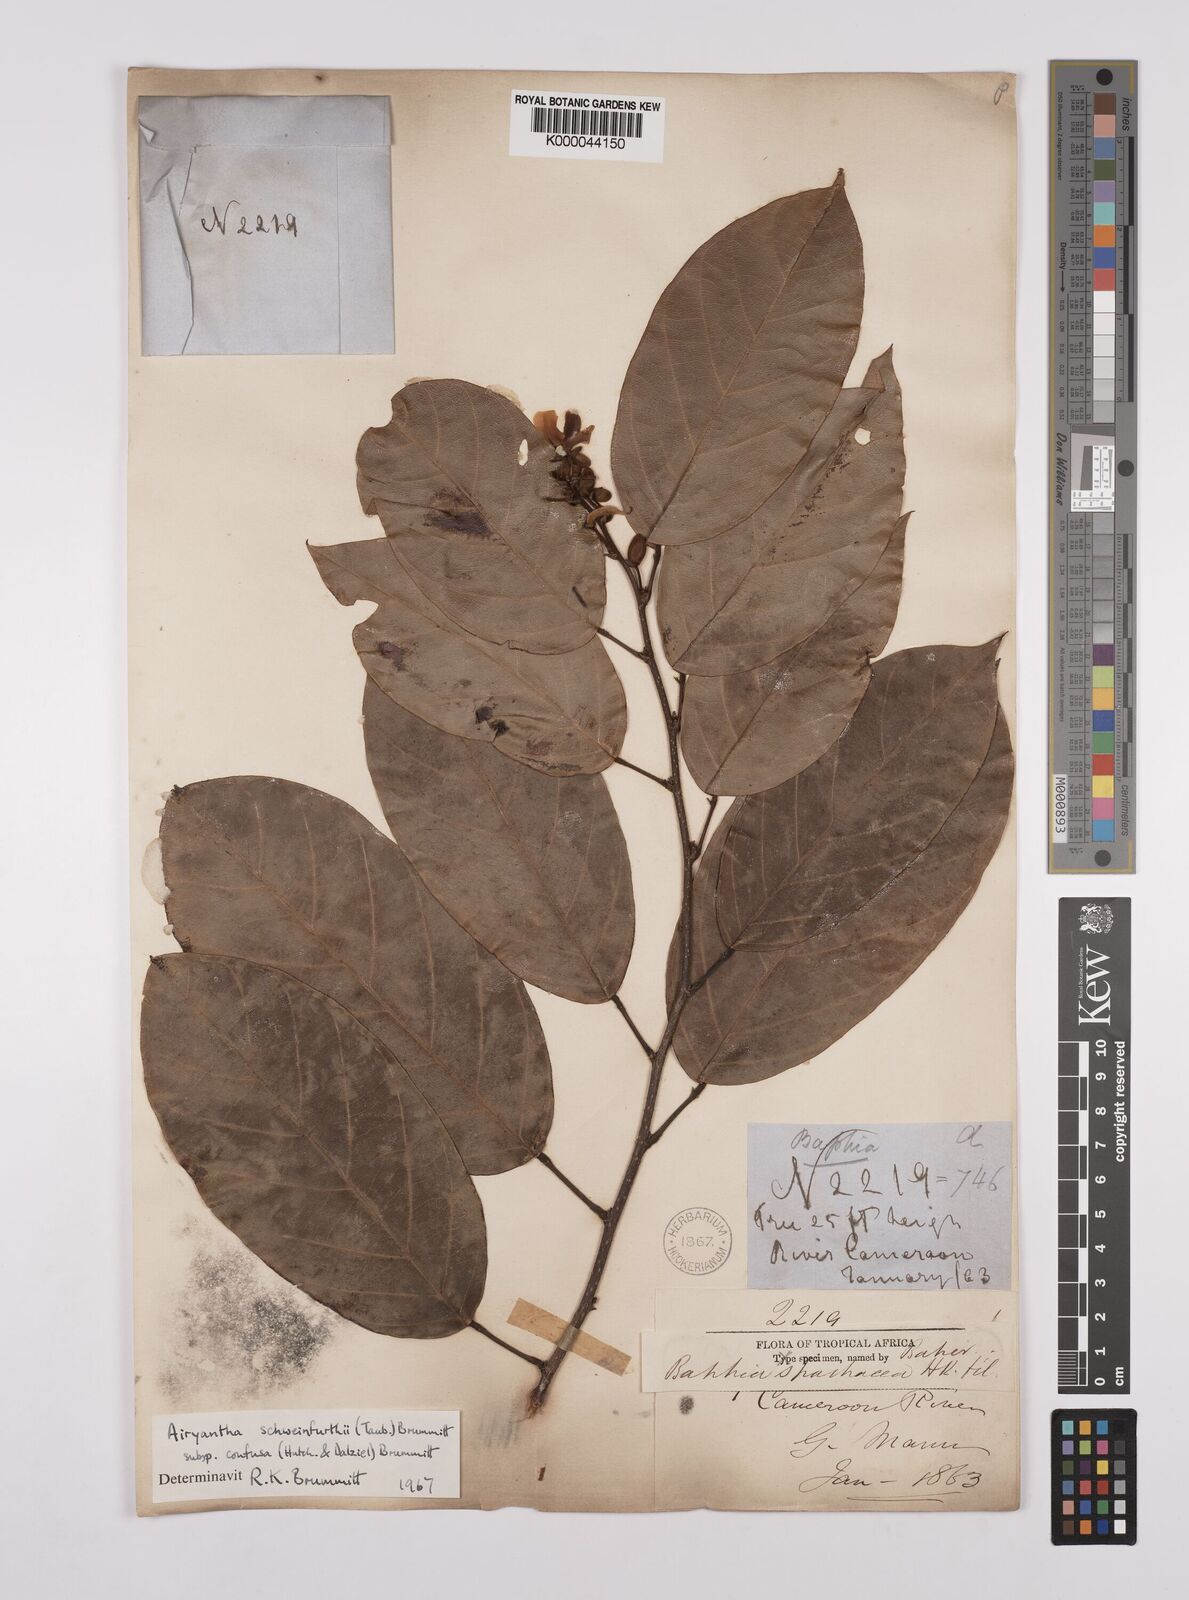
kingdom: Plantae
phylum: Tracheophyta
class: Magnoliopsida
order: Fabales
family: Fabaceae
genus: Airyantha
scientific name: Airyantha schweinfurthii
